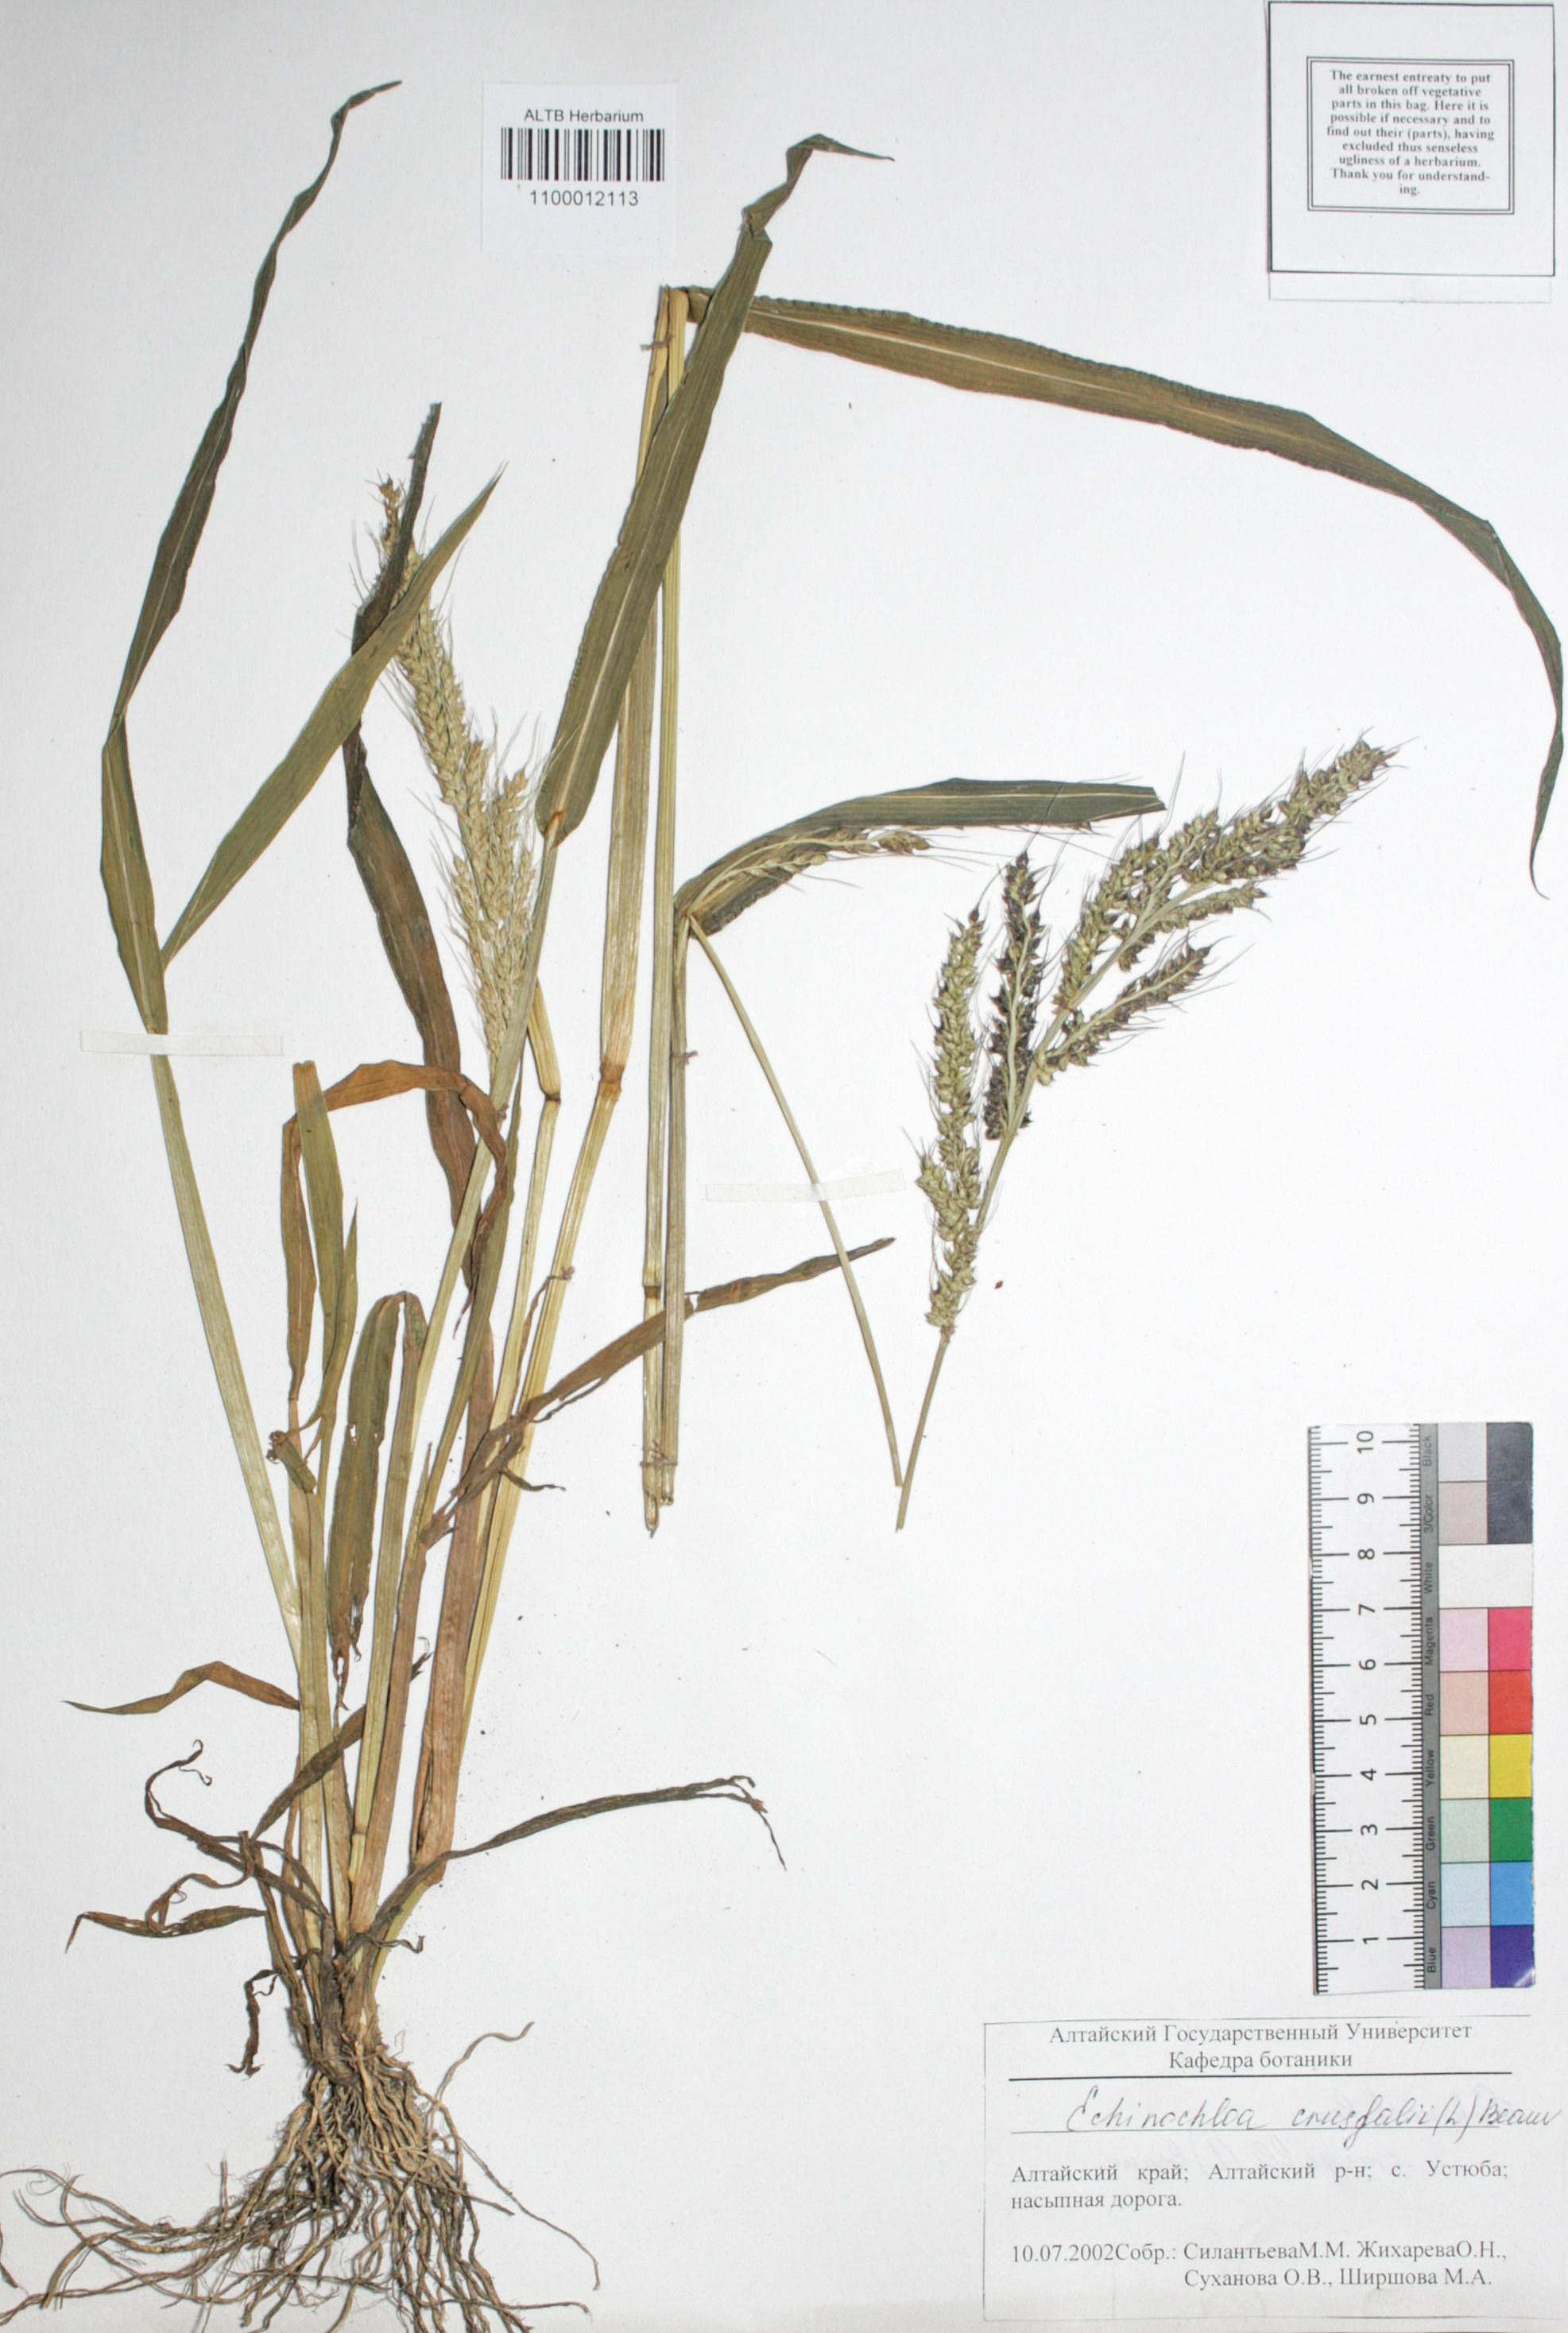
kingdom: Plantae
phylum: Tracheophyta
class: Liliopsida
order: Poales
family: Poaceae
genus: Echinochloa
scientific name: Echinochloa crus-galli
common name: Cockspur
